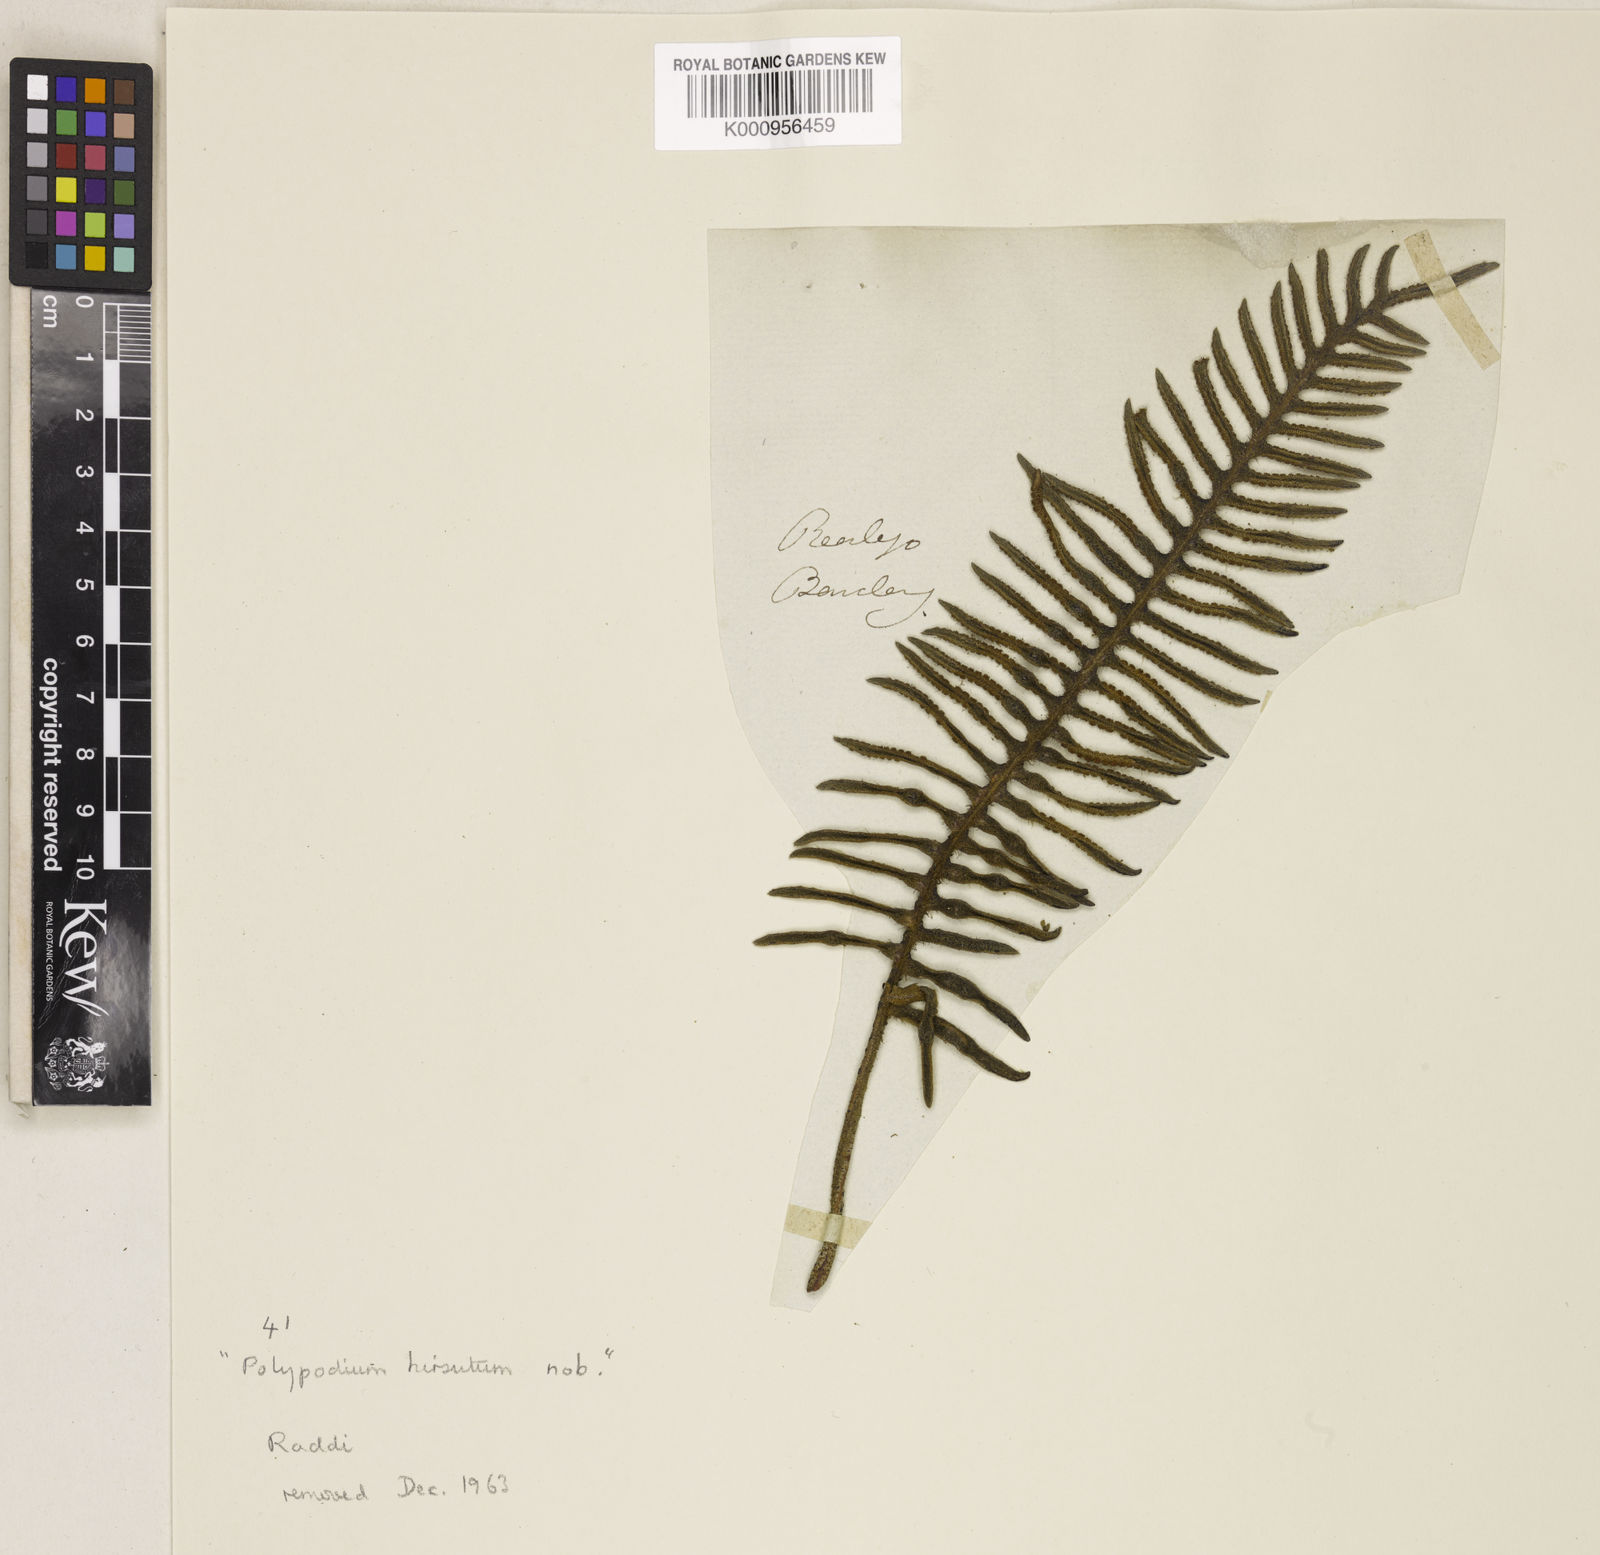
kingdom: Plantae
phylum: Tracheophyta
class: Polypodiopsida
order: Polypodiales
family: Polypodiaceae
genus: Polypodium
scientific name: Polypodium
